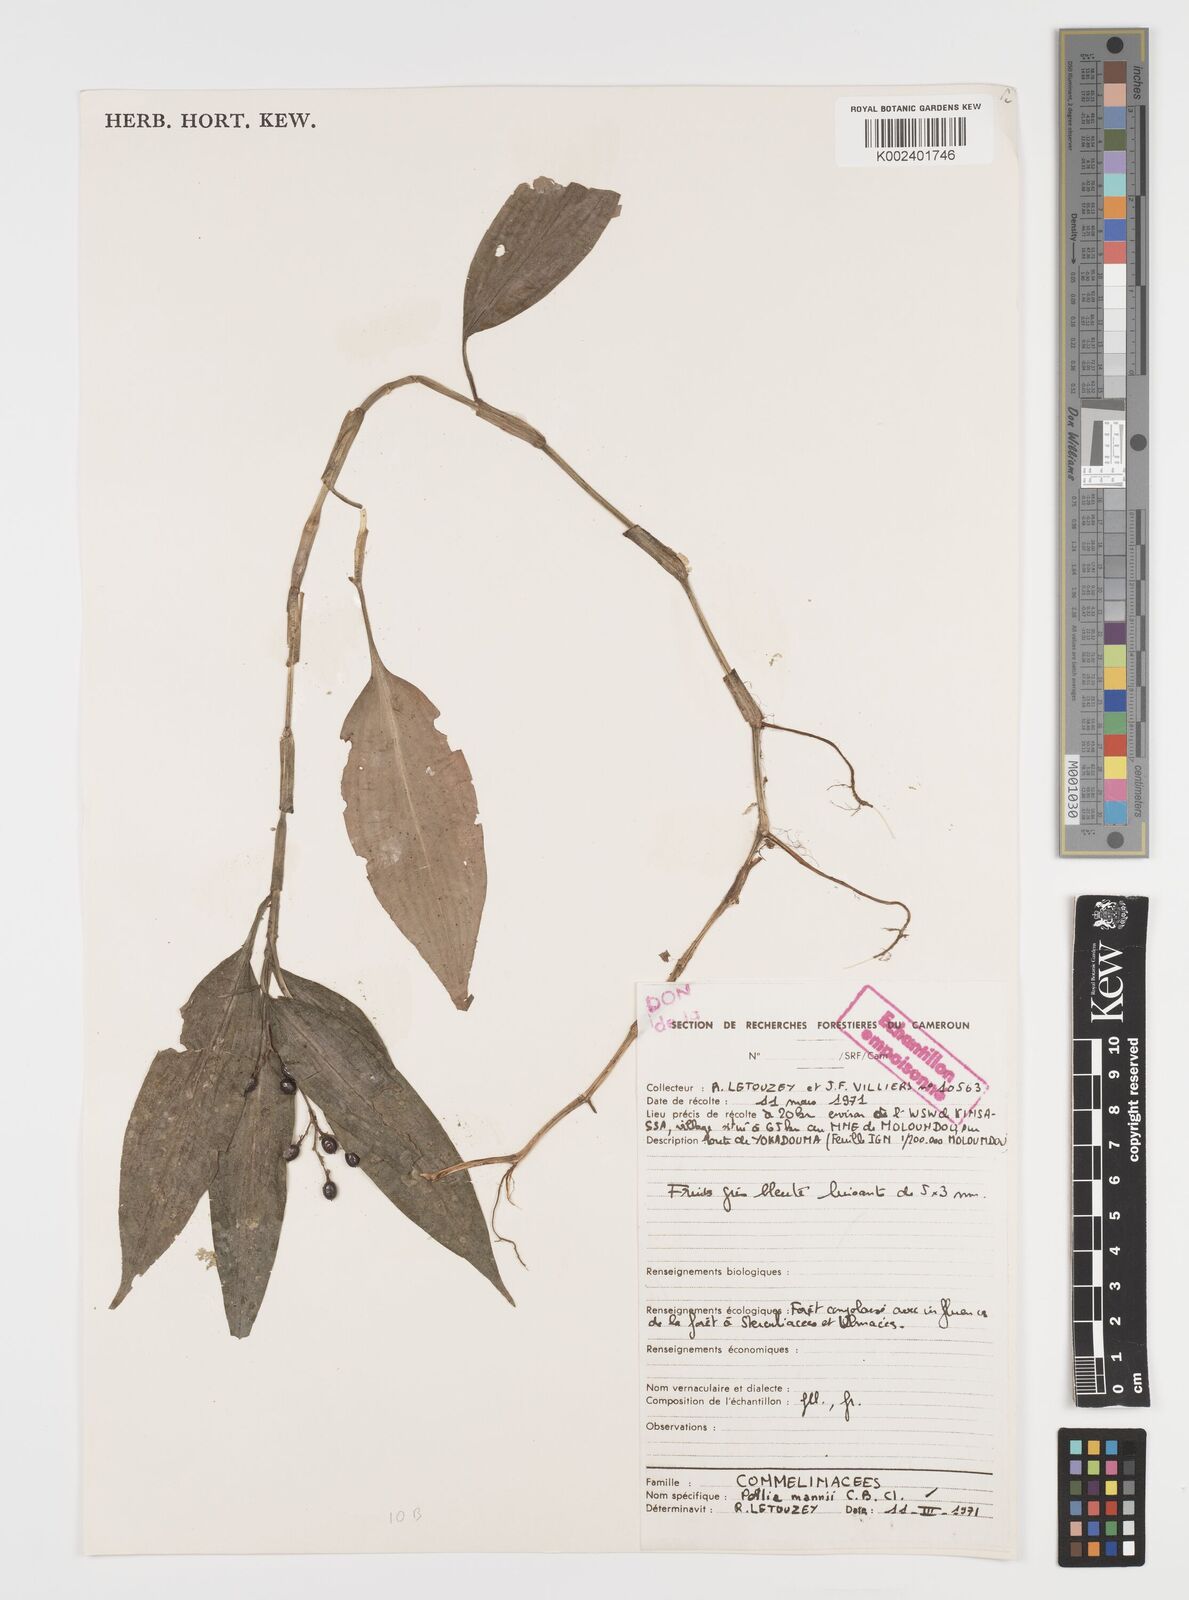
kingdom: Plantae
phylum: Tracheophyta
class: Liliopsida
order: Commelinales
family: Commelinaceae
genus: Pollia
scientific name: Pollia mannii
